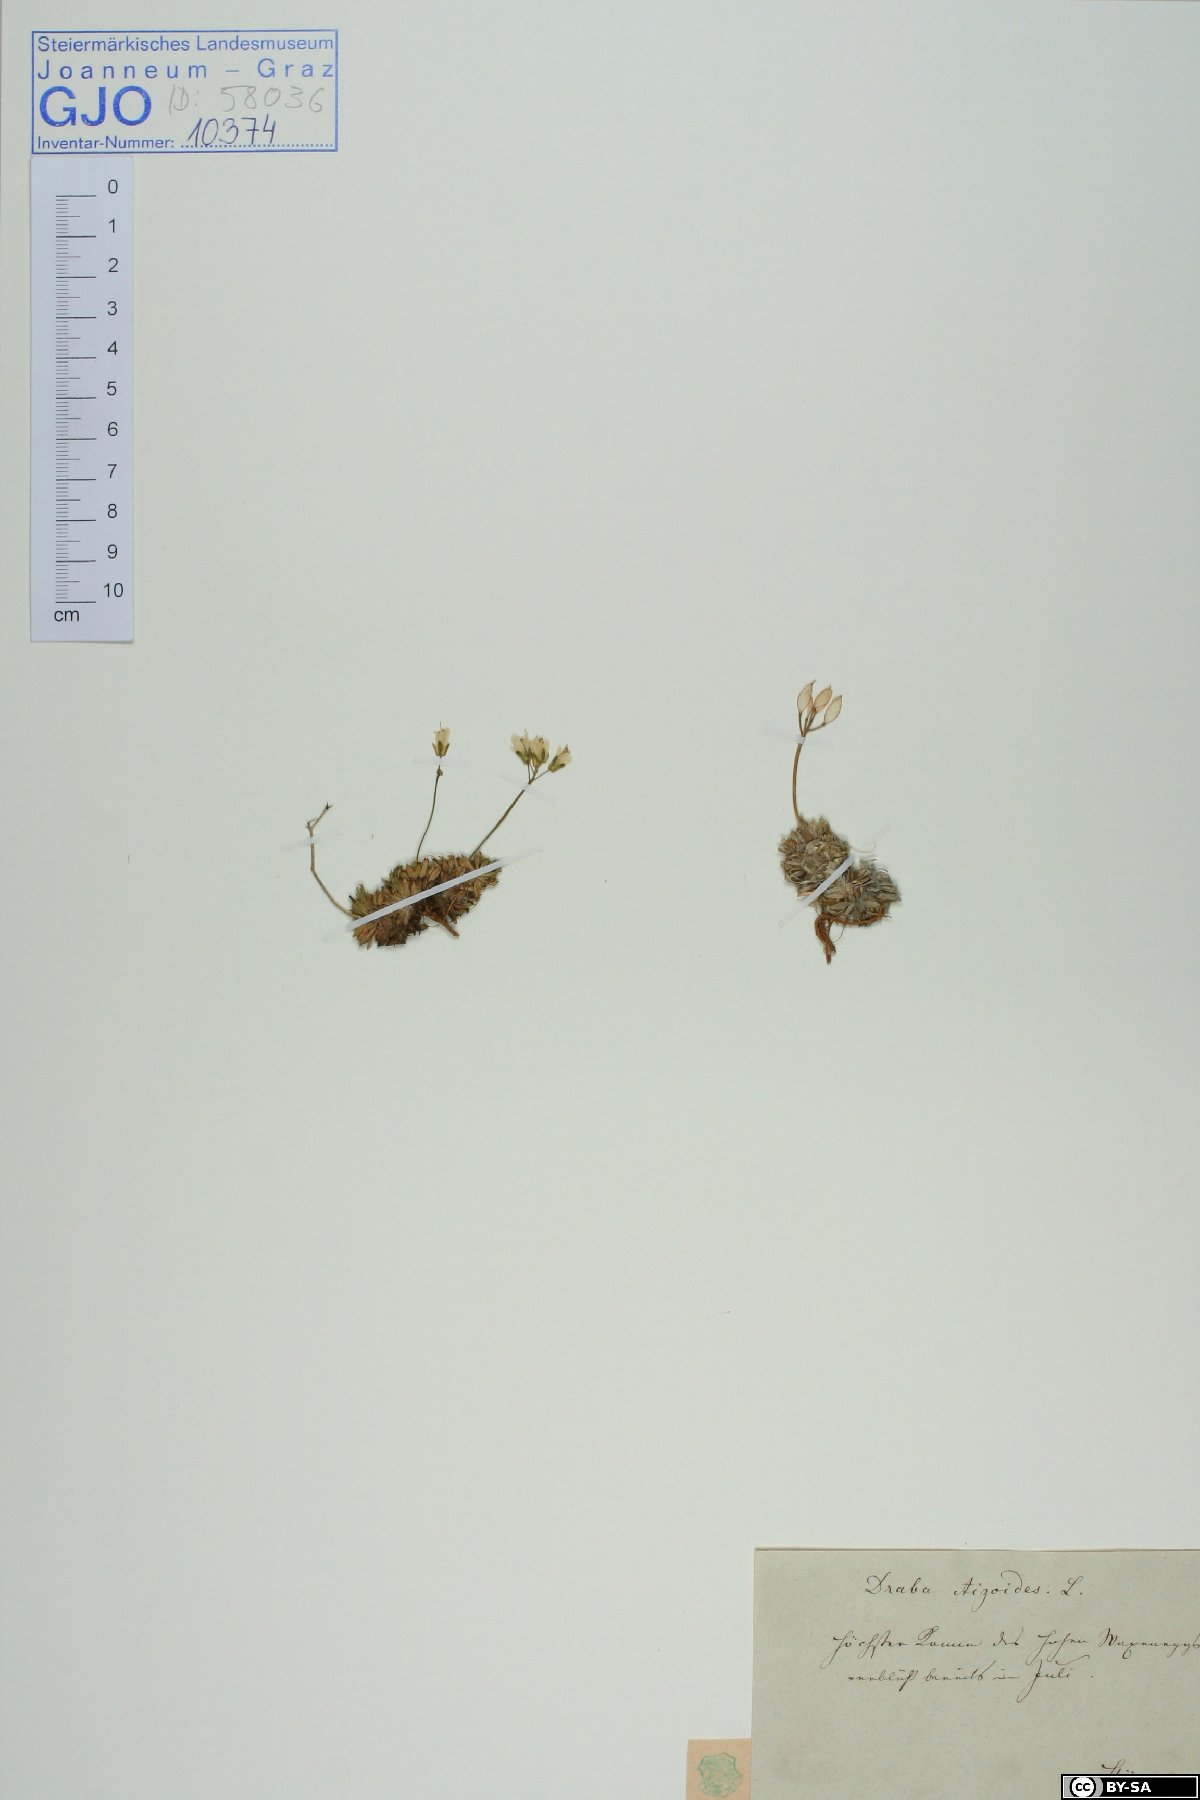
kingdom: Plantae
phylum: Tracheophyta
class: Magnoliopsida
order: Brassicales
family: Brassicaceae
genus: Draba
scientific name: Draba aizoides
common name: Yellow whitlowgrass
